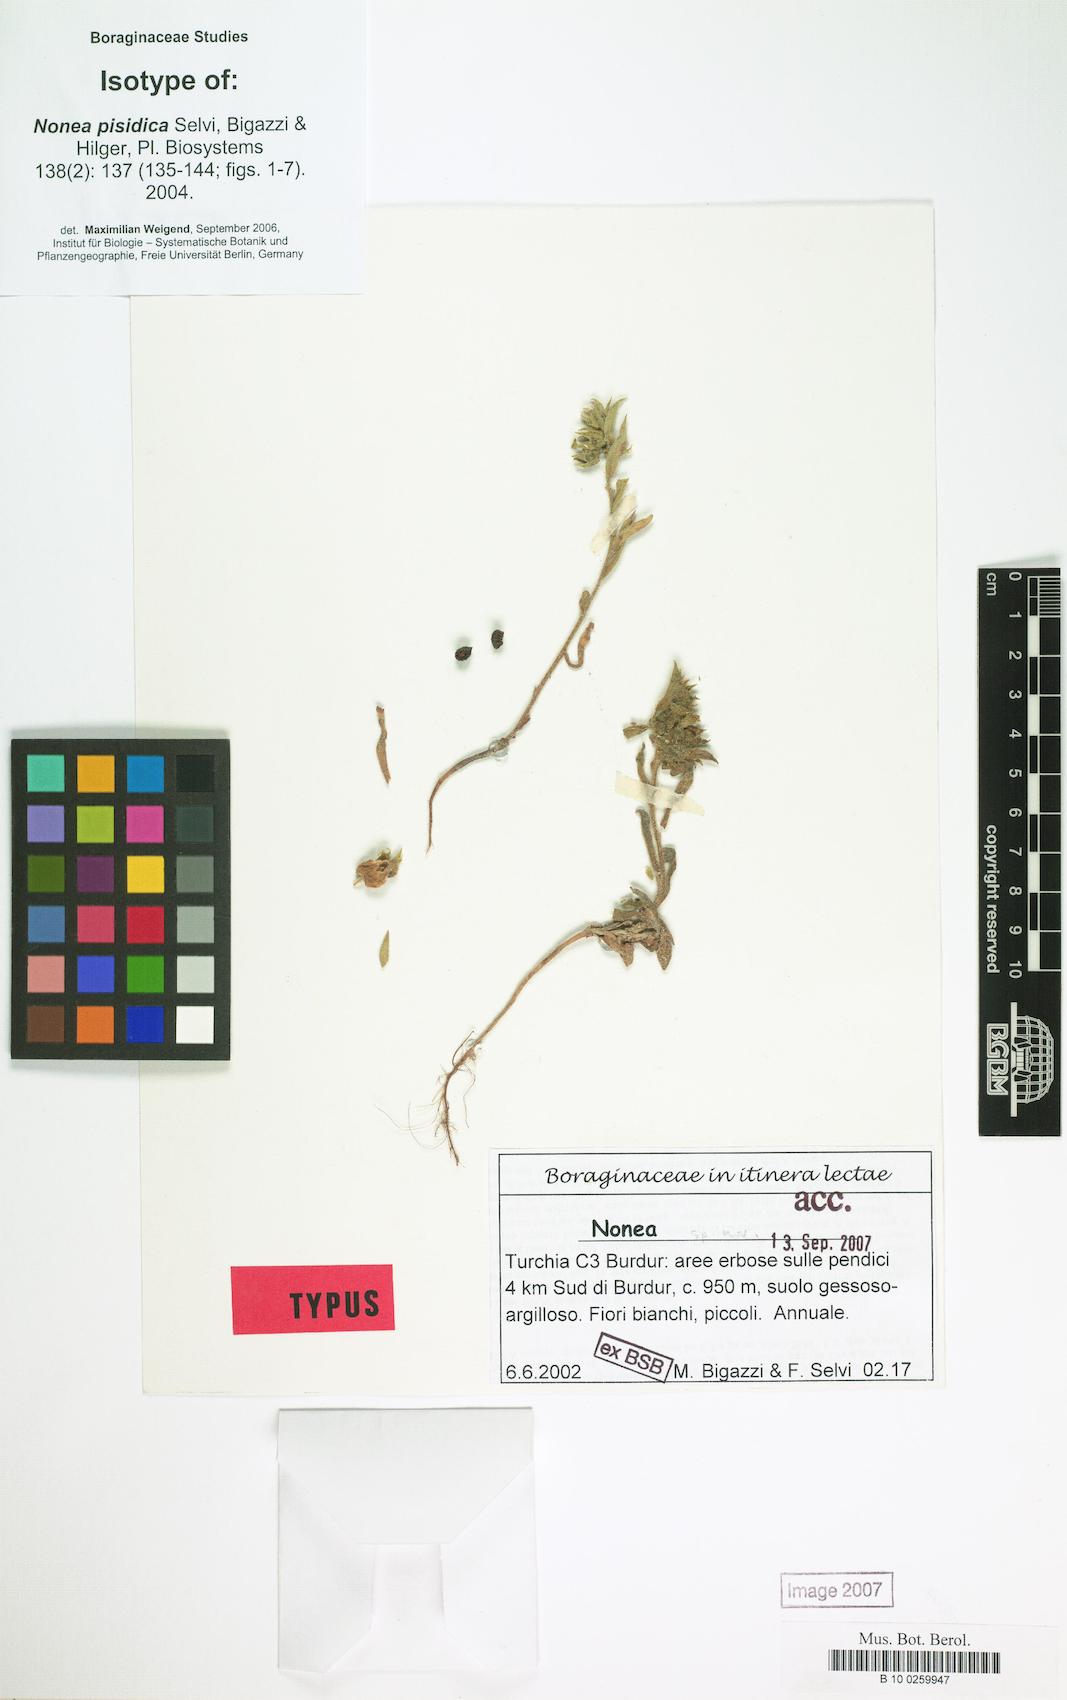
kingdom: Plantae
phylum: Tracheophyta
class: Magnoliopsida
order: Boraginales
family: Boraginaceae
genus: Nonea
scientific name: Nonea pisidica
